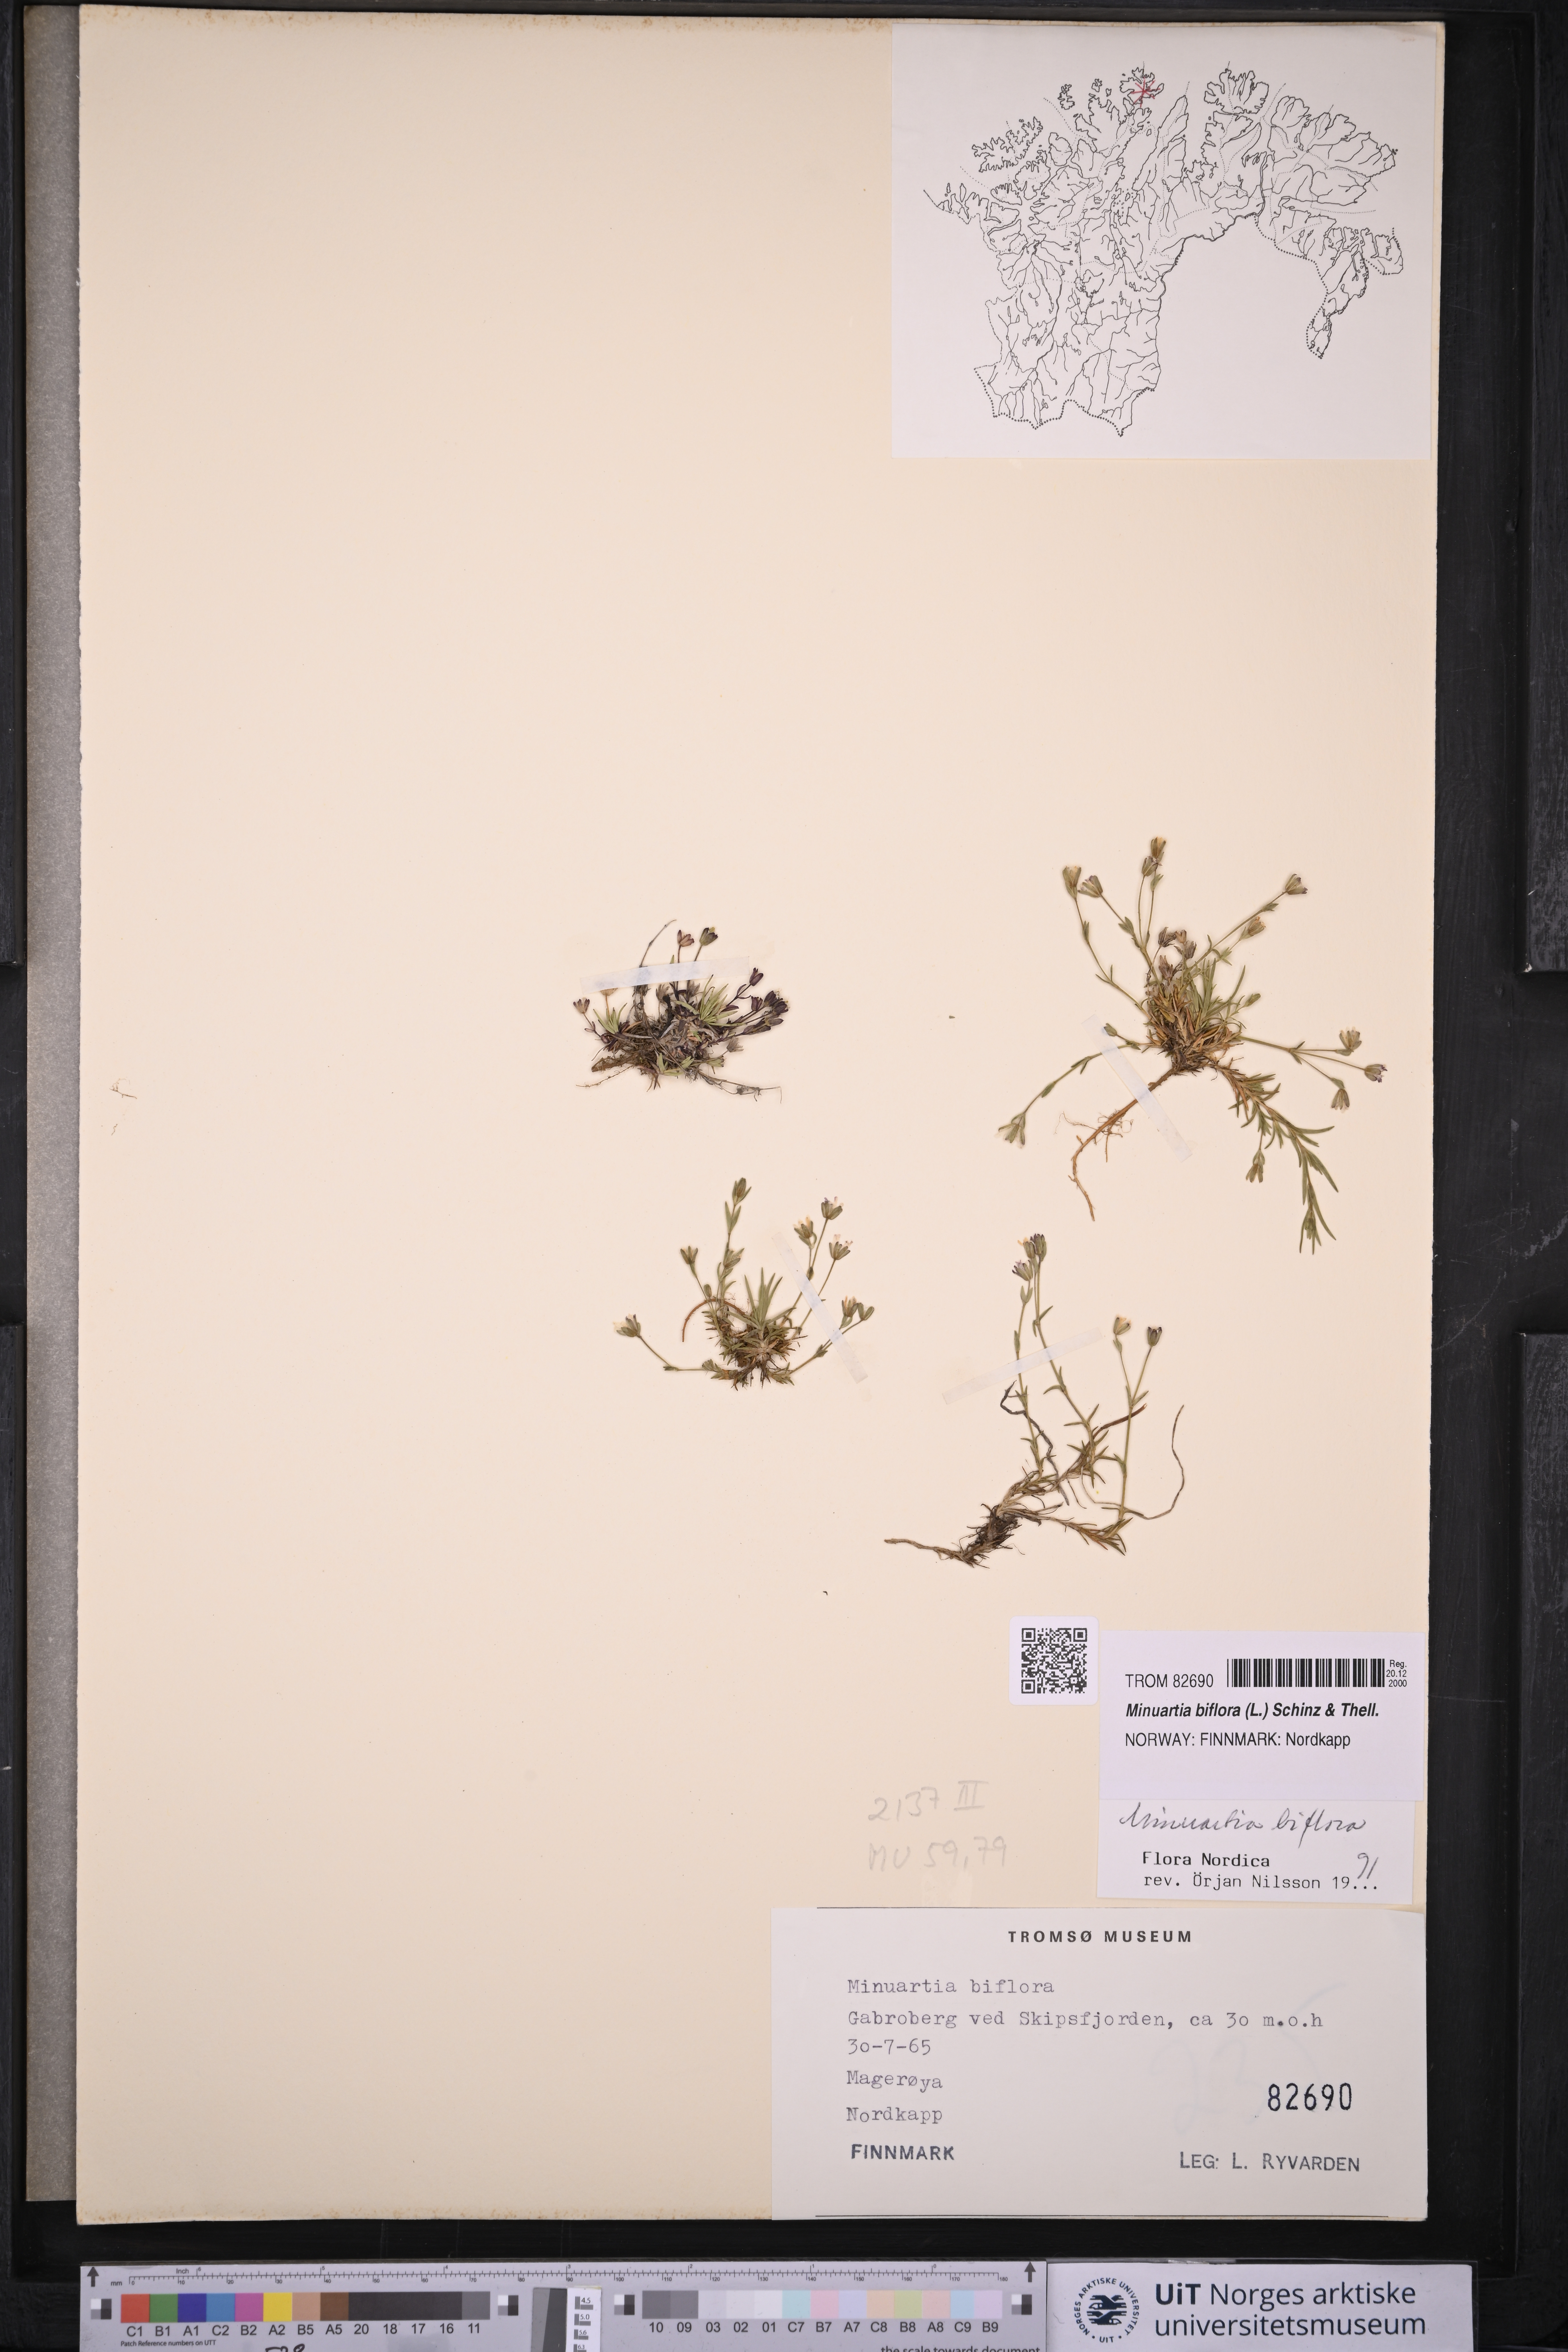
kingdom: Plantae
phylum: Tracheophyta
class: Magnoliopsida
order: Caryophyllales
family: Caryophyllaceae
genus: Cherleria
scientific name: Cherleria biflora
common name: Mountain sandwort
